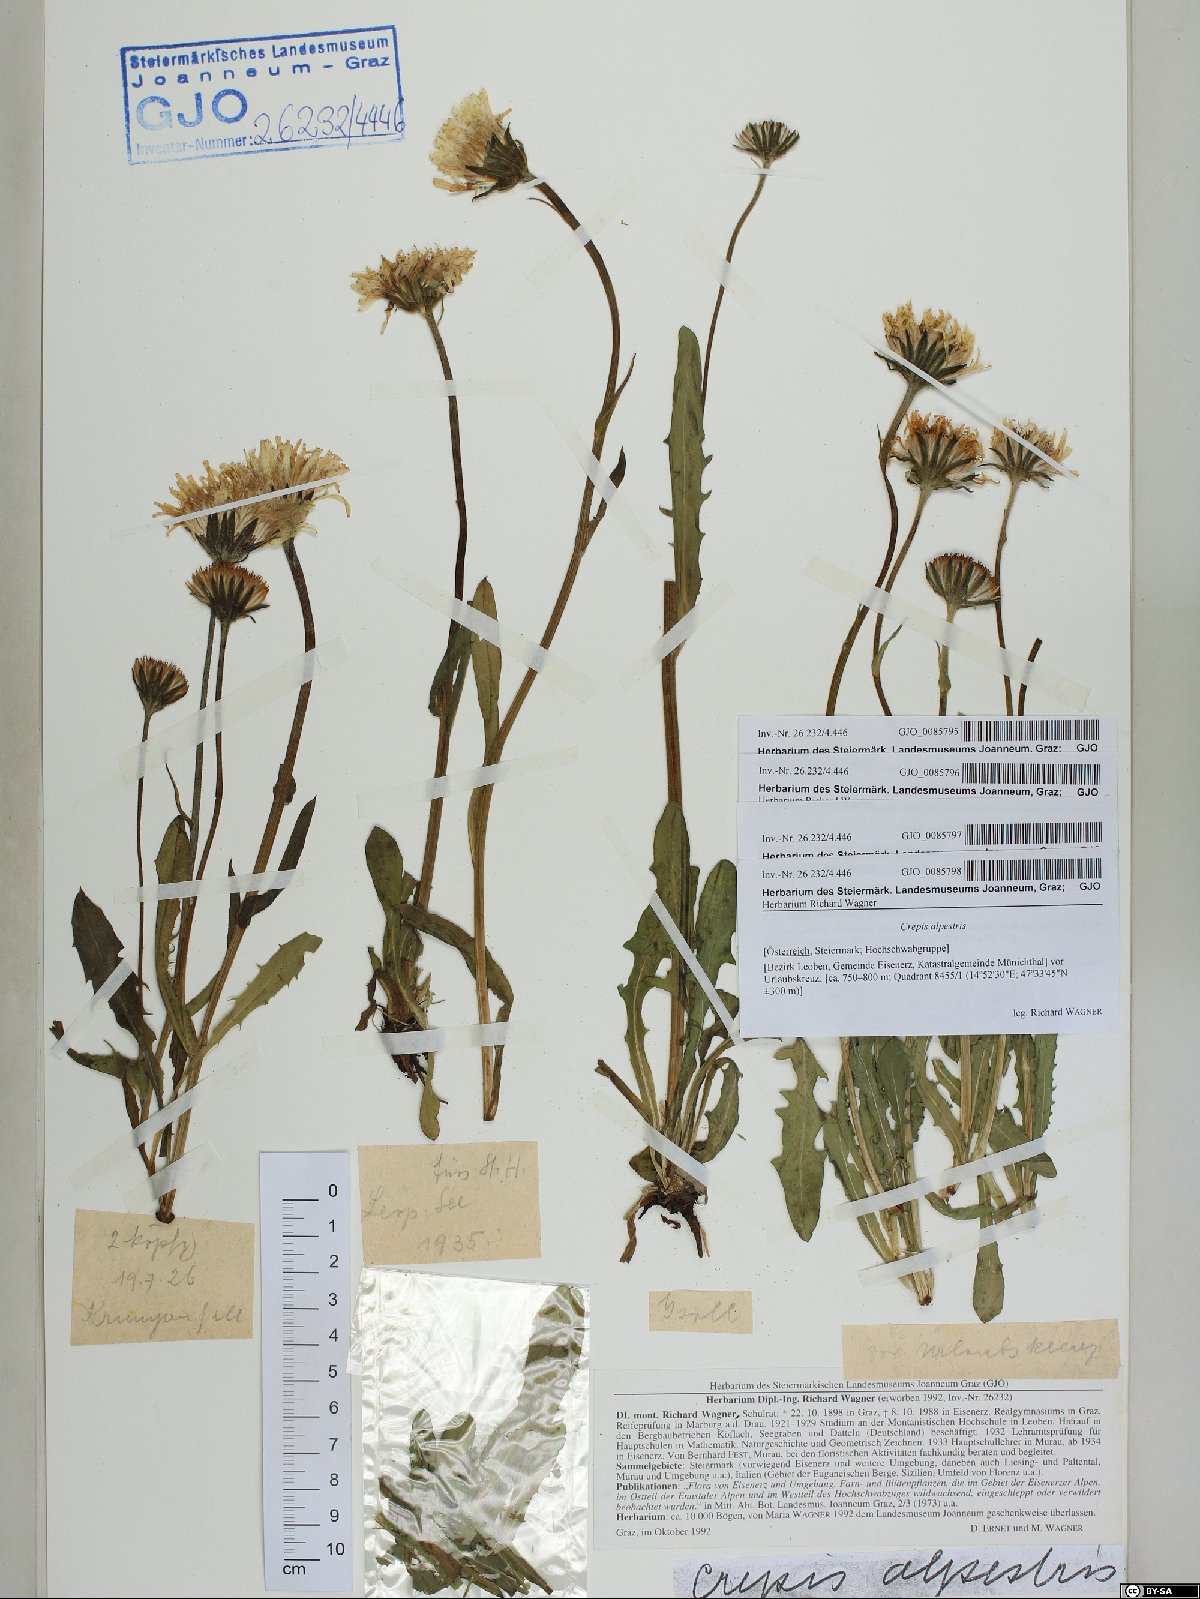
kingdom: Plantae
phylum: Tracheophyta
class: Magnoliopsida
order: Asterales
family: Asteraceae
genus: Crepis
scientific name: Crepis alpestris
